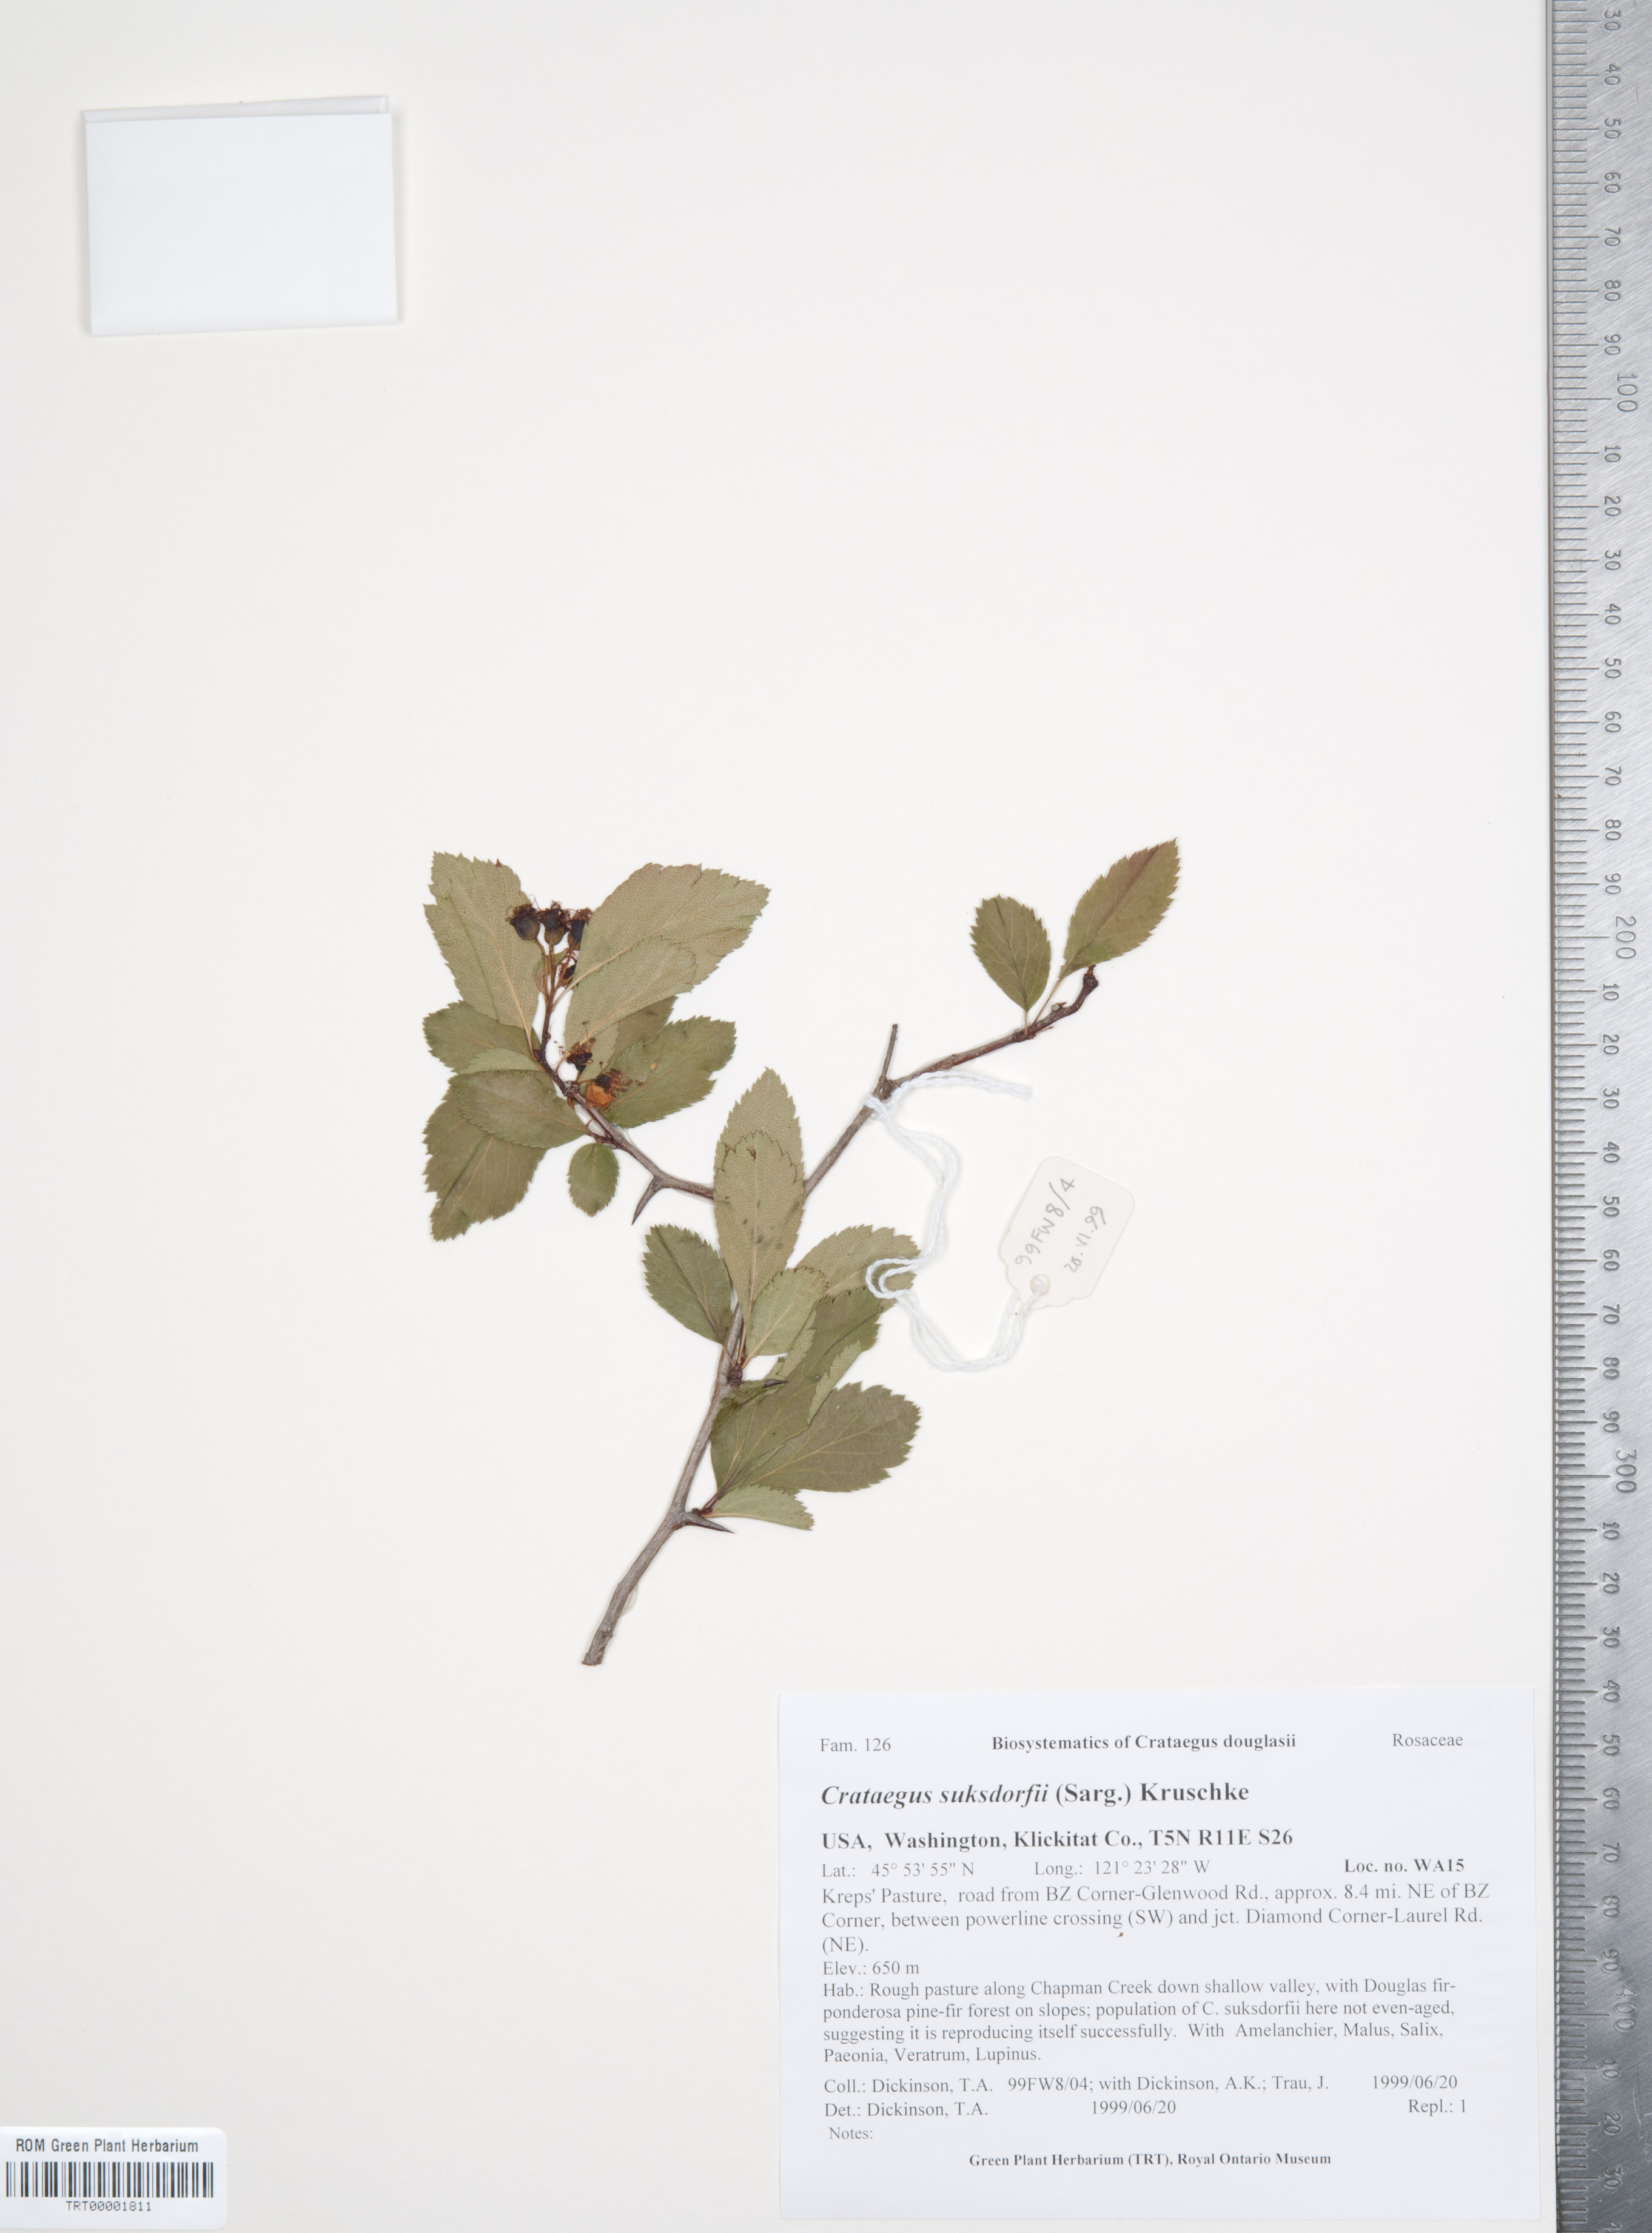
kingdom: Plantae
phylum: Tracheophyta
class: Magnoliopsida
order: Rosales
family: Rosaceae
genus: Crataegus
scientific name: Crataegus gaylussacia
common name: Huckleberry hawthorn
